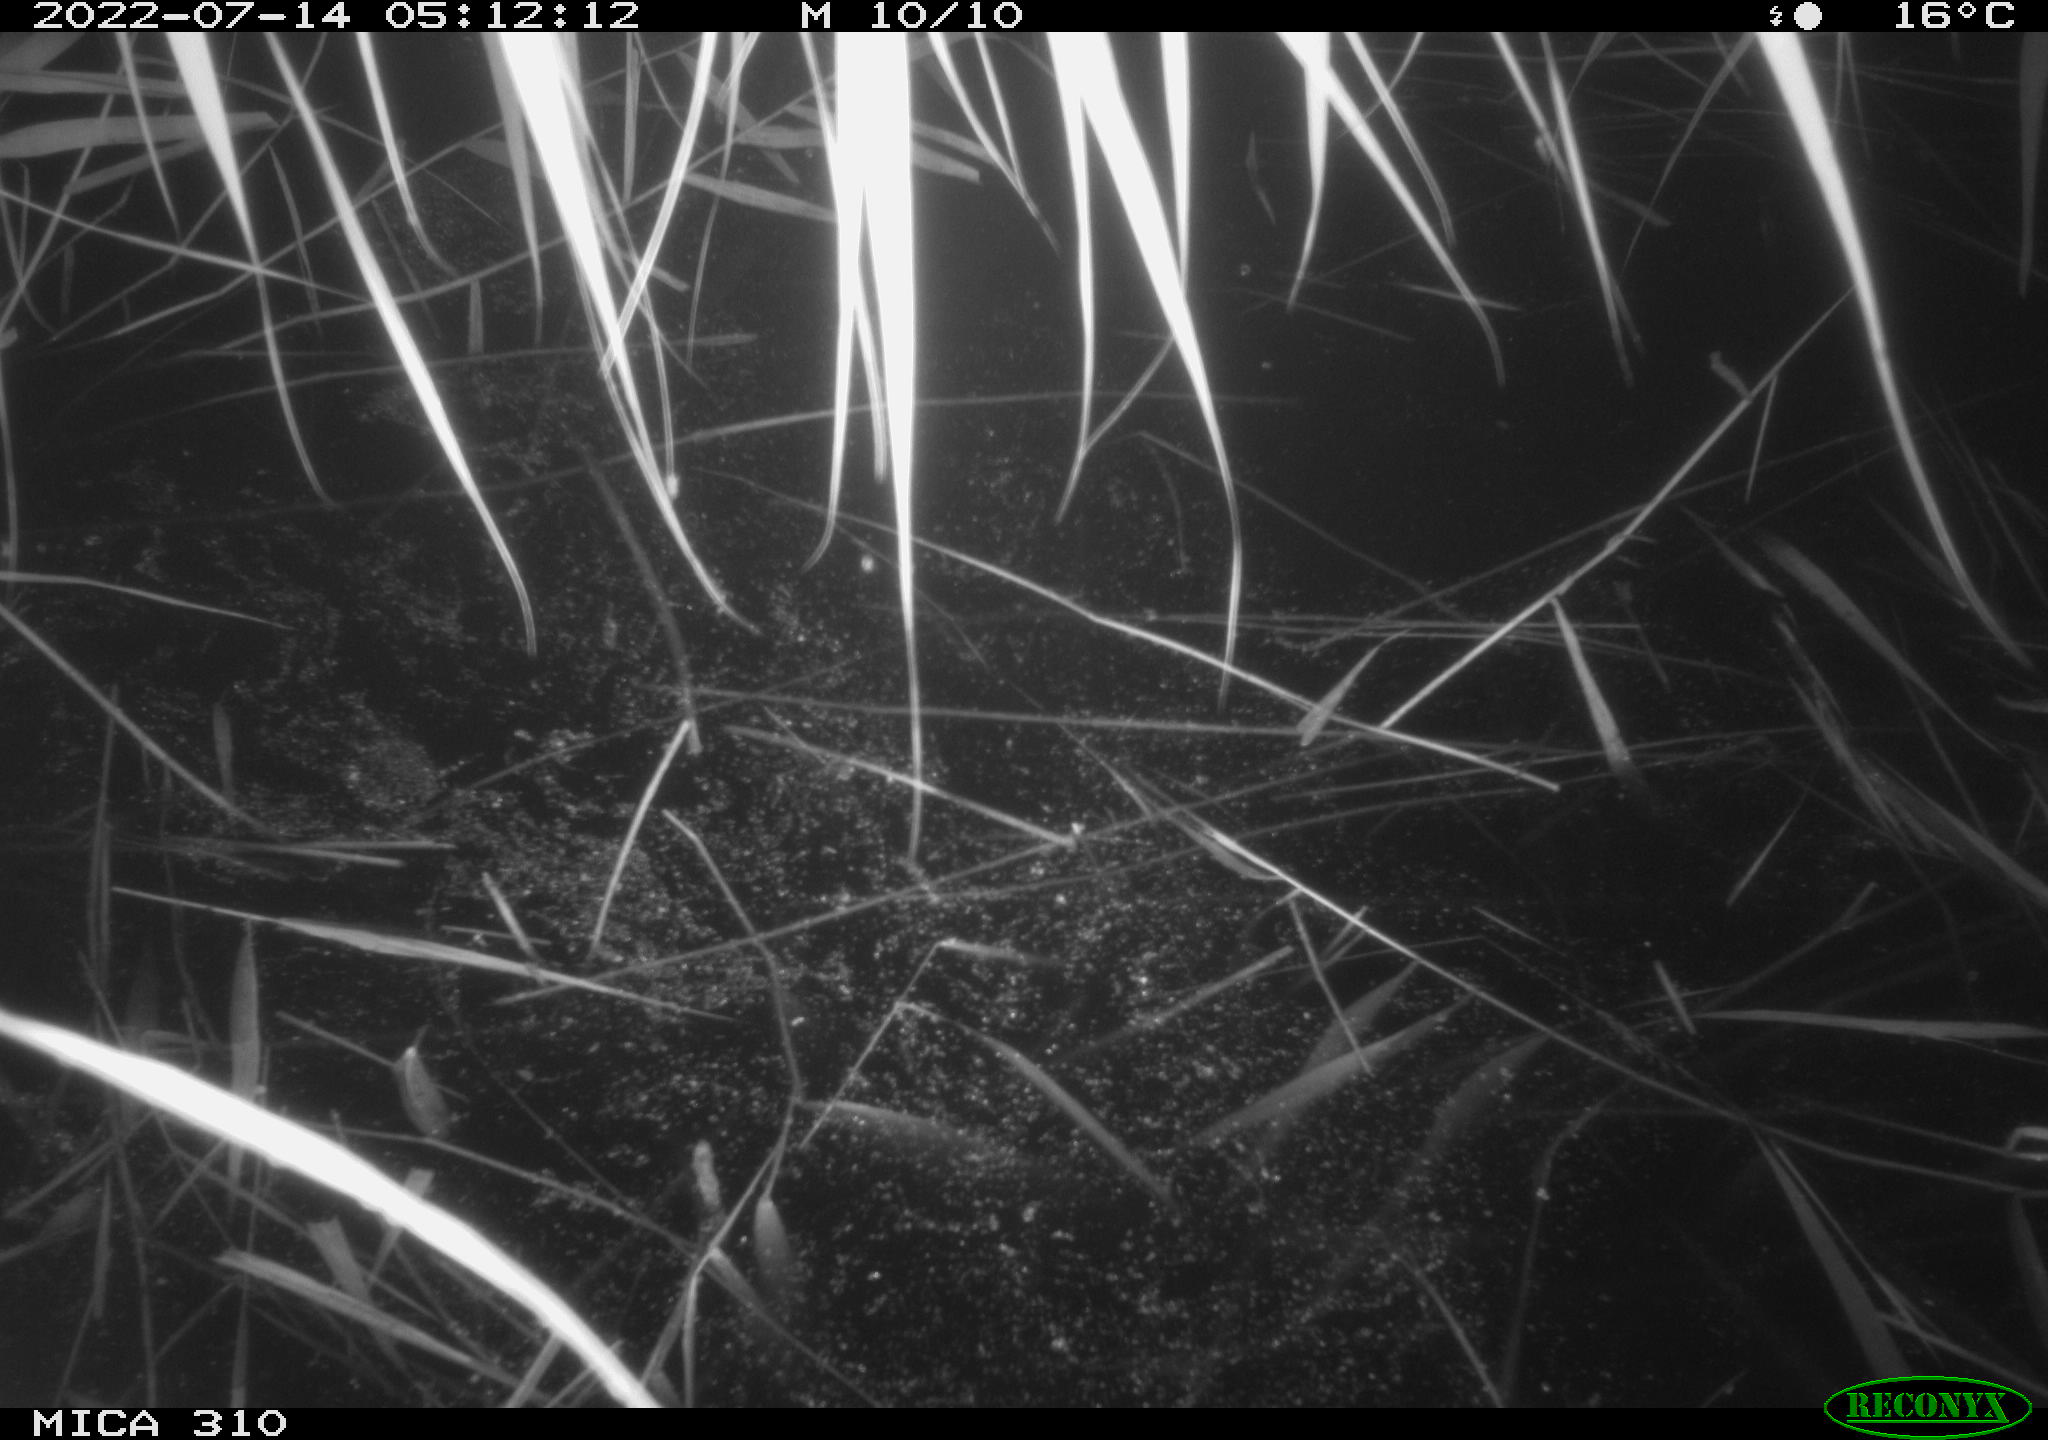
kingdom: Animalia
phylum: Chordata
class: Aves
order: Anseriformes
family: Anatidae
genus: Anas
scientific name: Anas platyrhynchos
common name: Mallard
